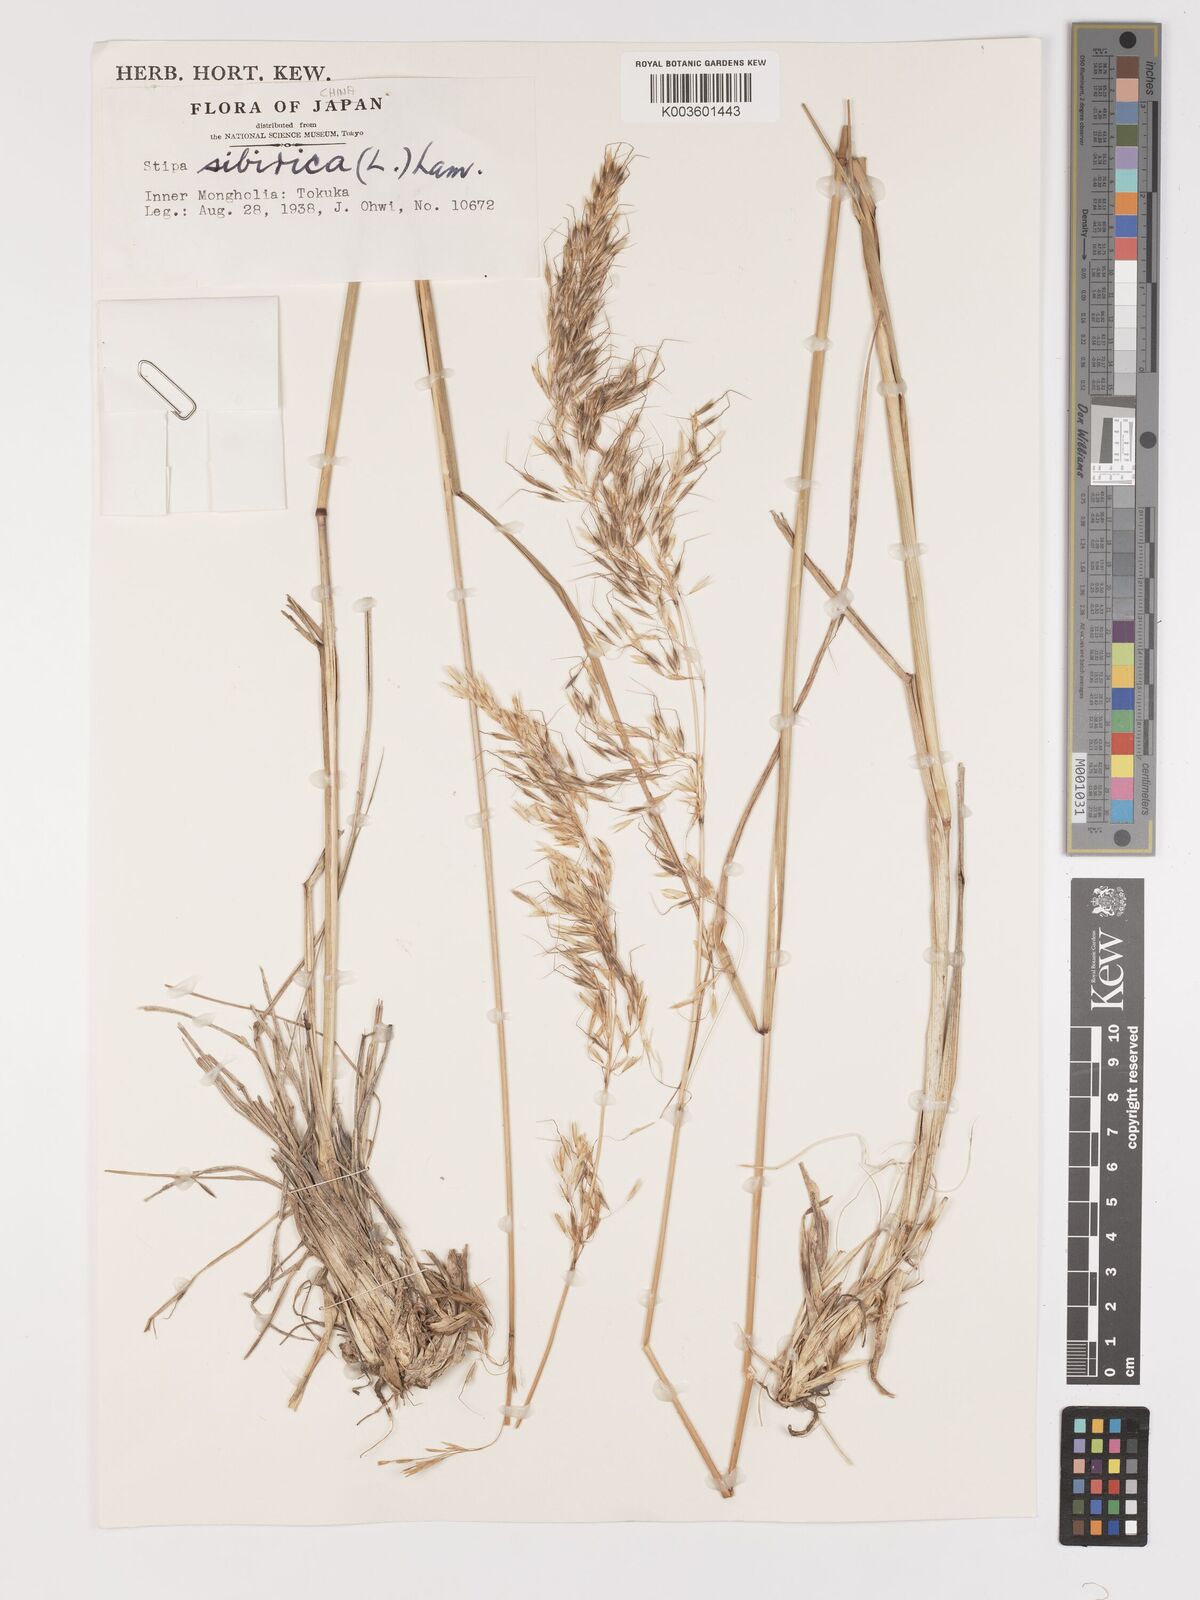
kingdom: Plantae
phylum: Tracheophyta
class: Liliopsida
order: Poales
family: Poaceae
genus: Achnatherum
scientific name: Achnatherum sibiricum
